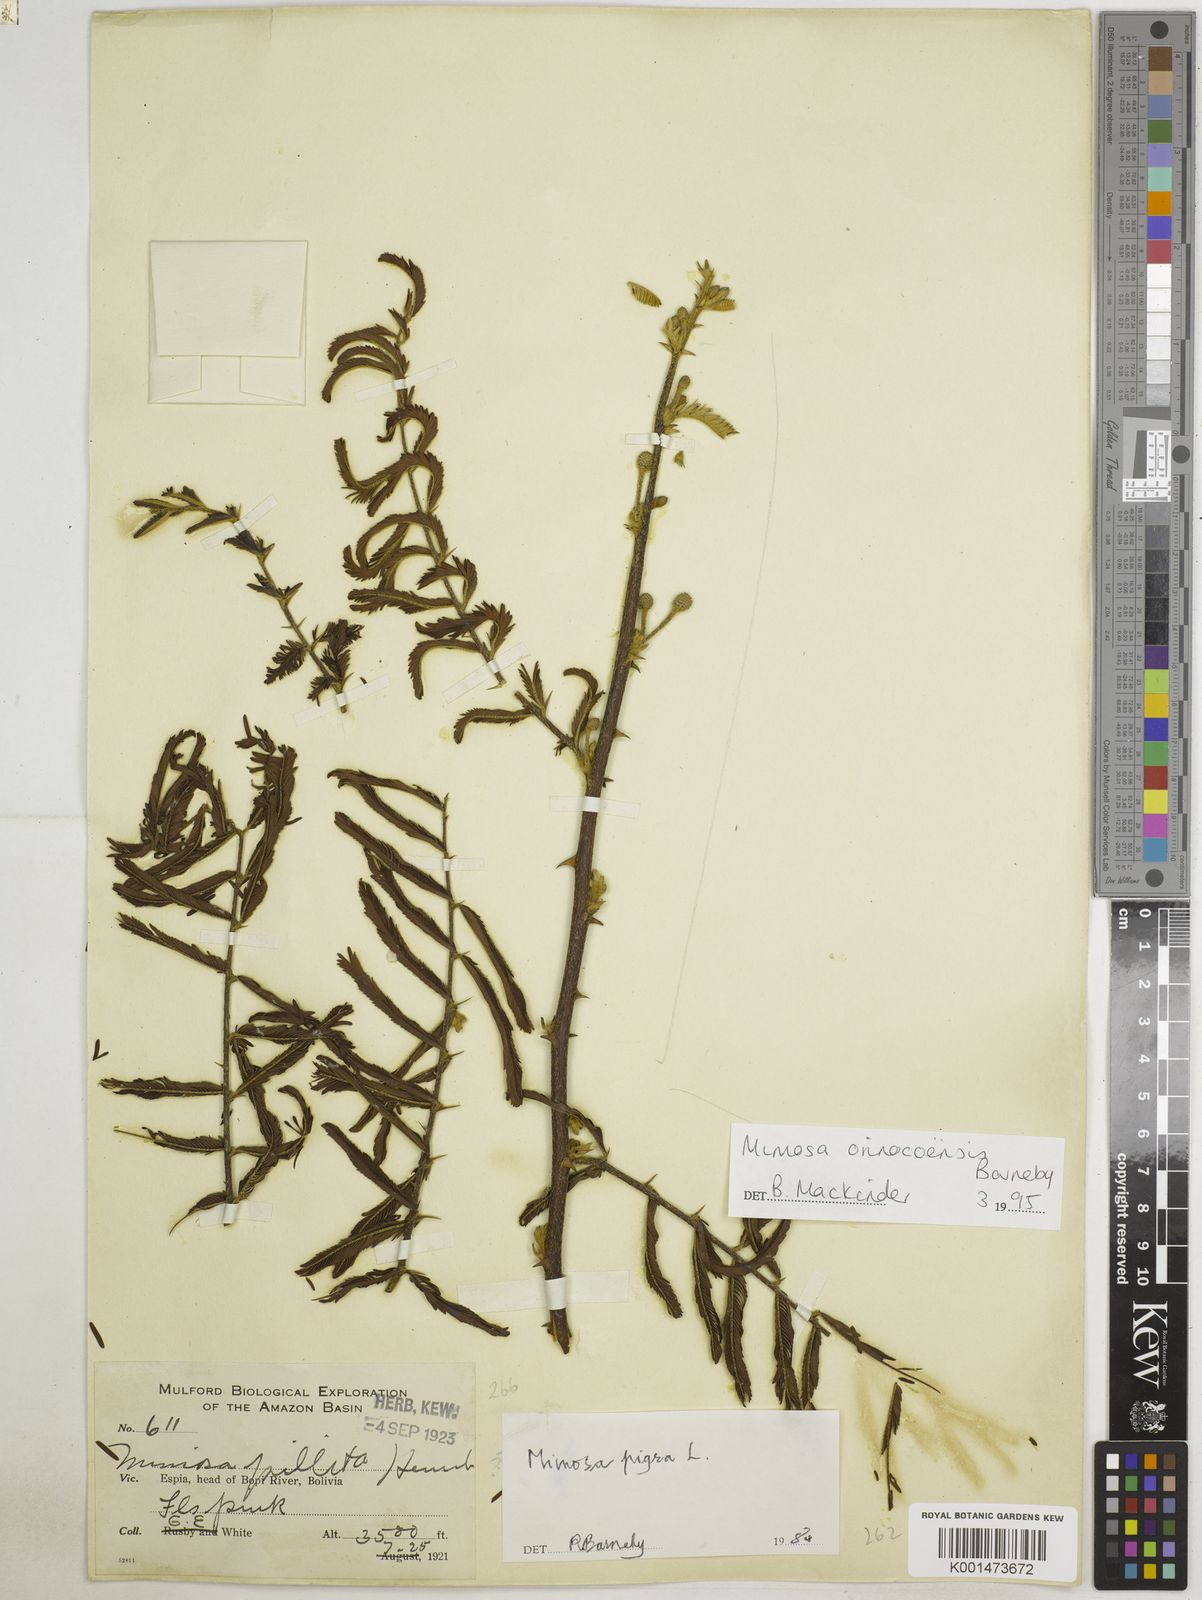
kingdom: Plantae
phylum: Tracheophyta
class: Magnoliopsida
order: Fabales
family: Fabaceae
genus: Mimosa
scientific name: Mimosa orinocoensis
